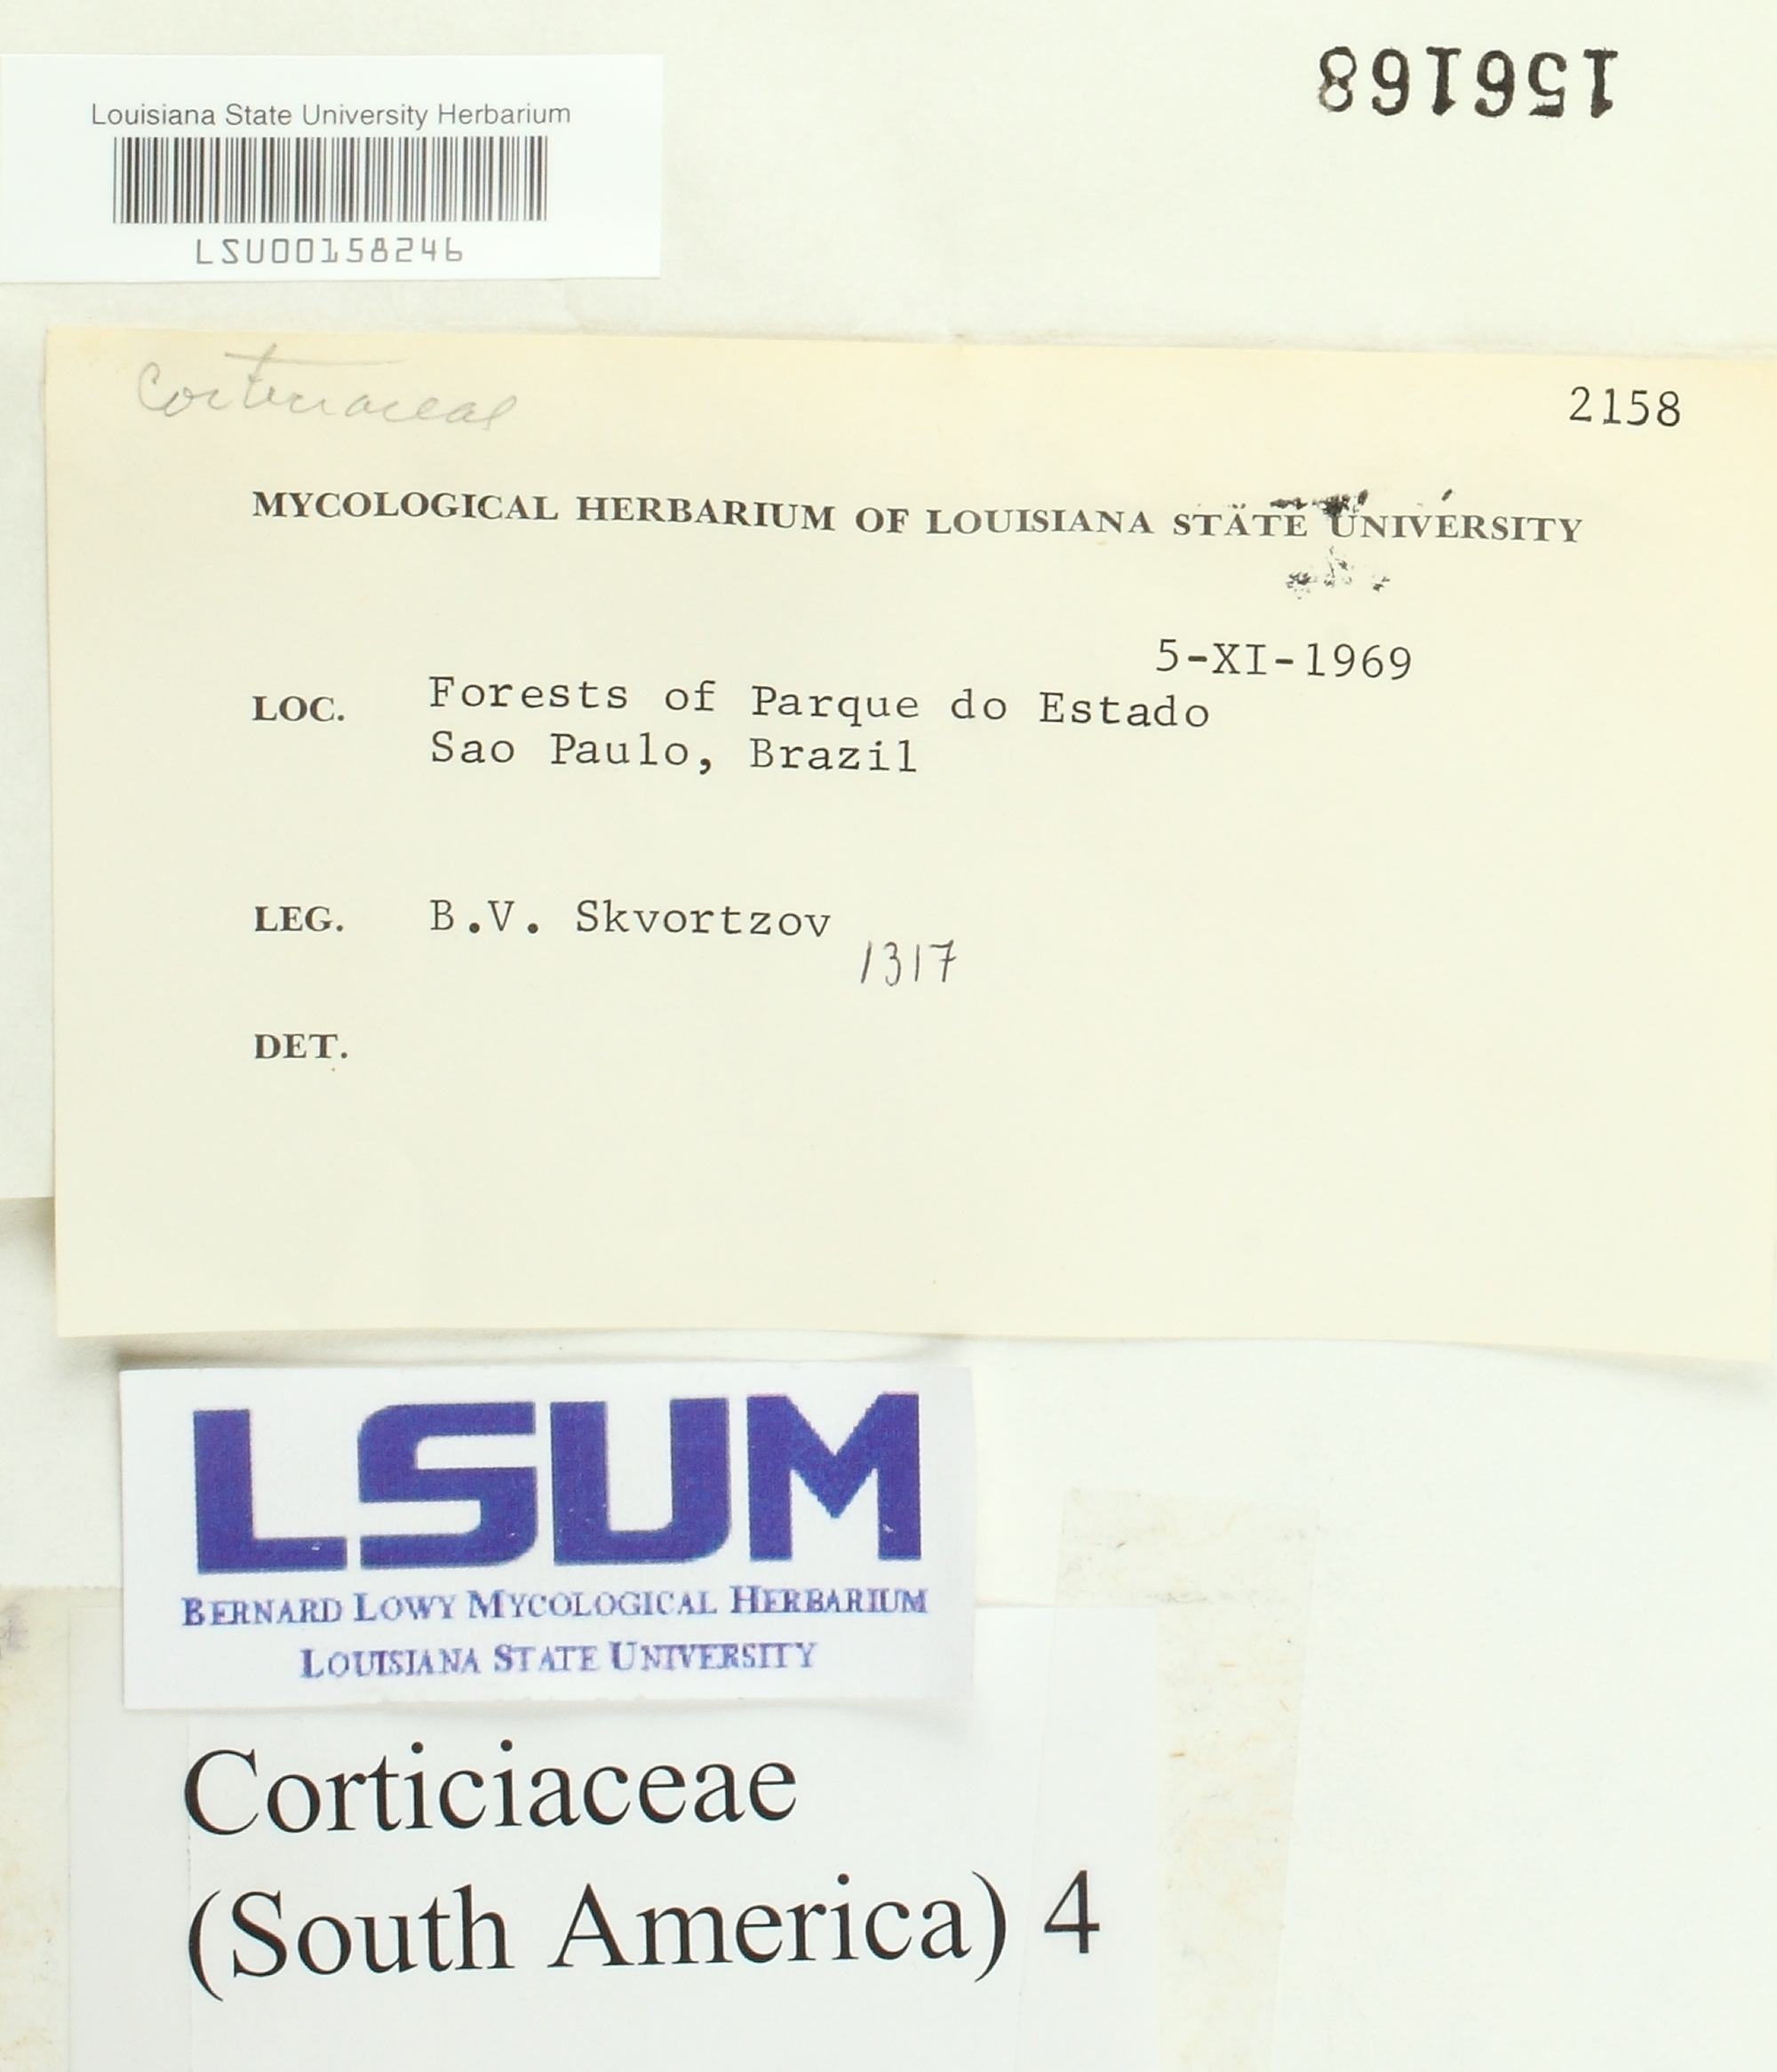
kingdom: Fungi
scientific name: Fungi
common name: Fungi
